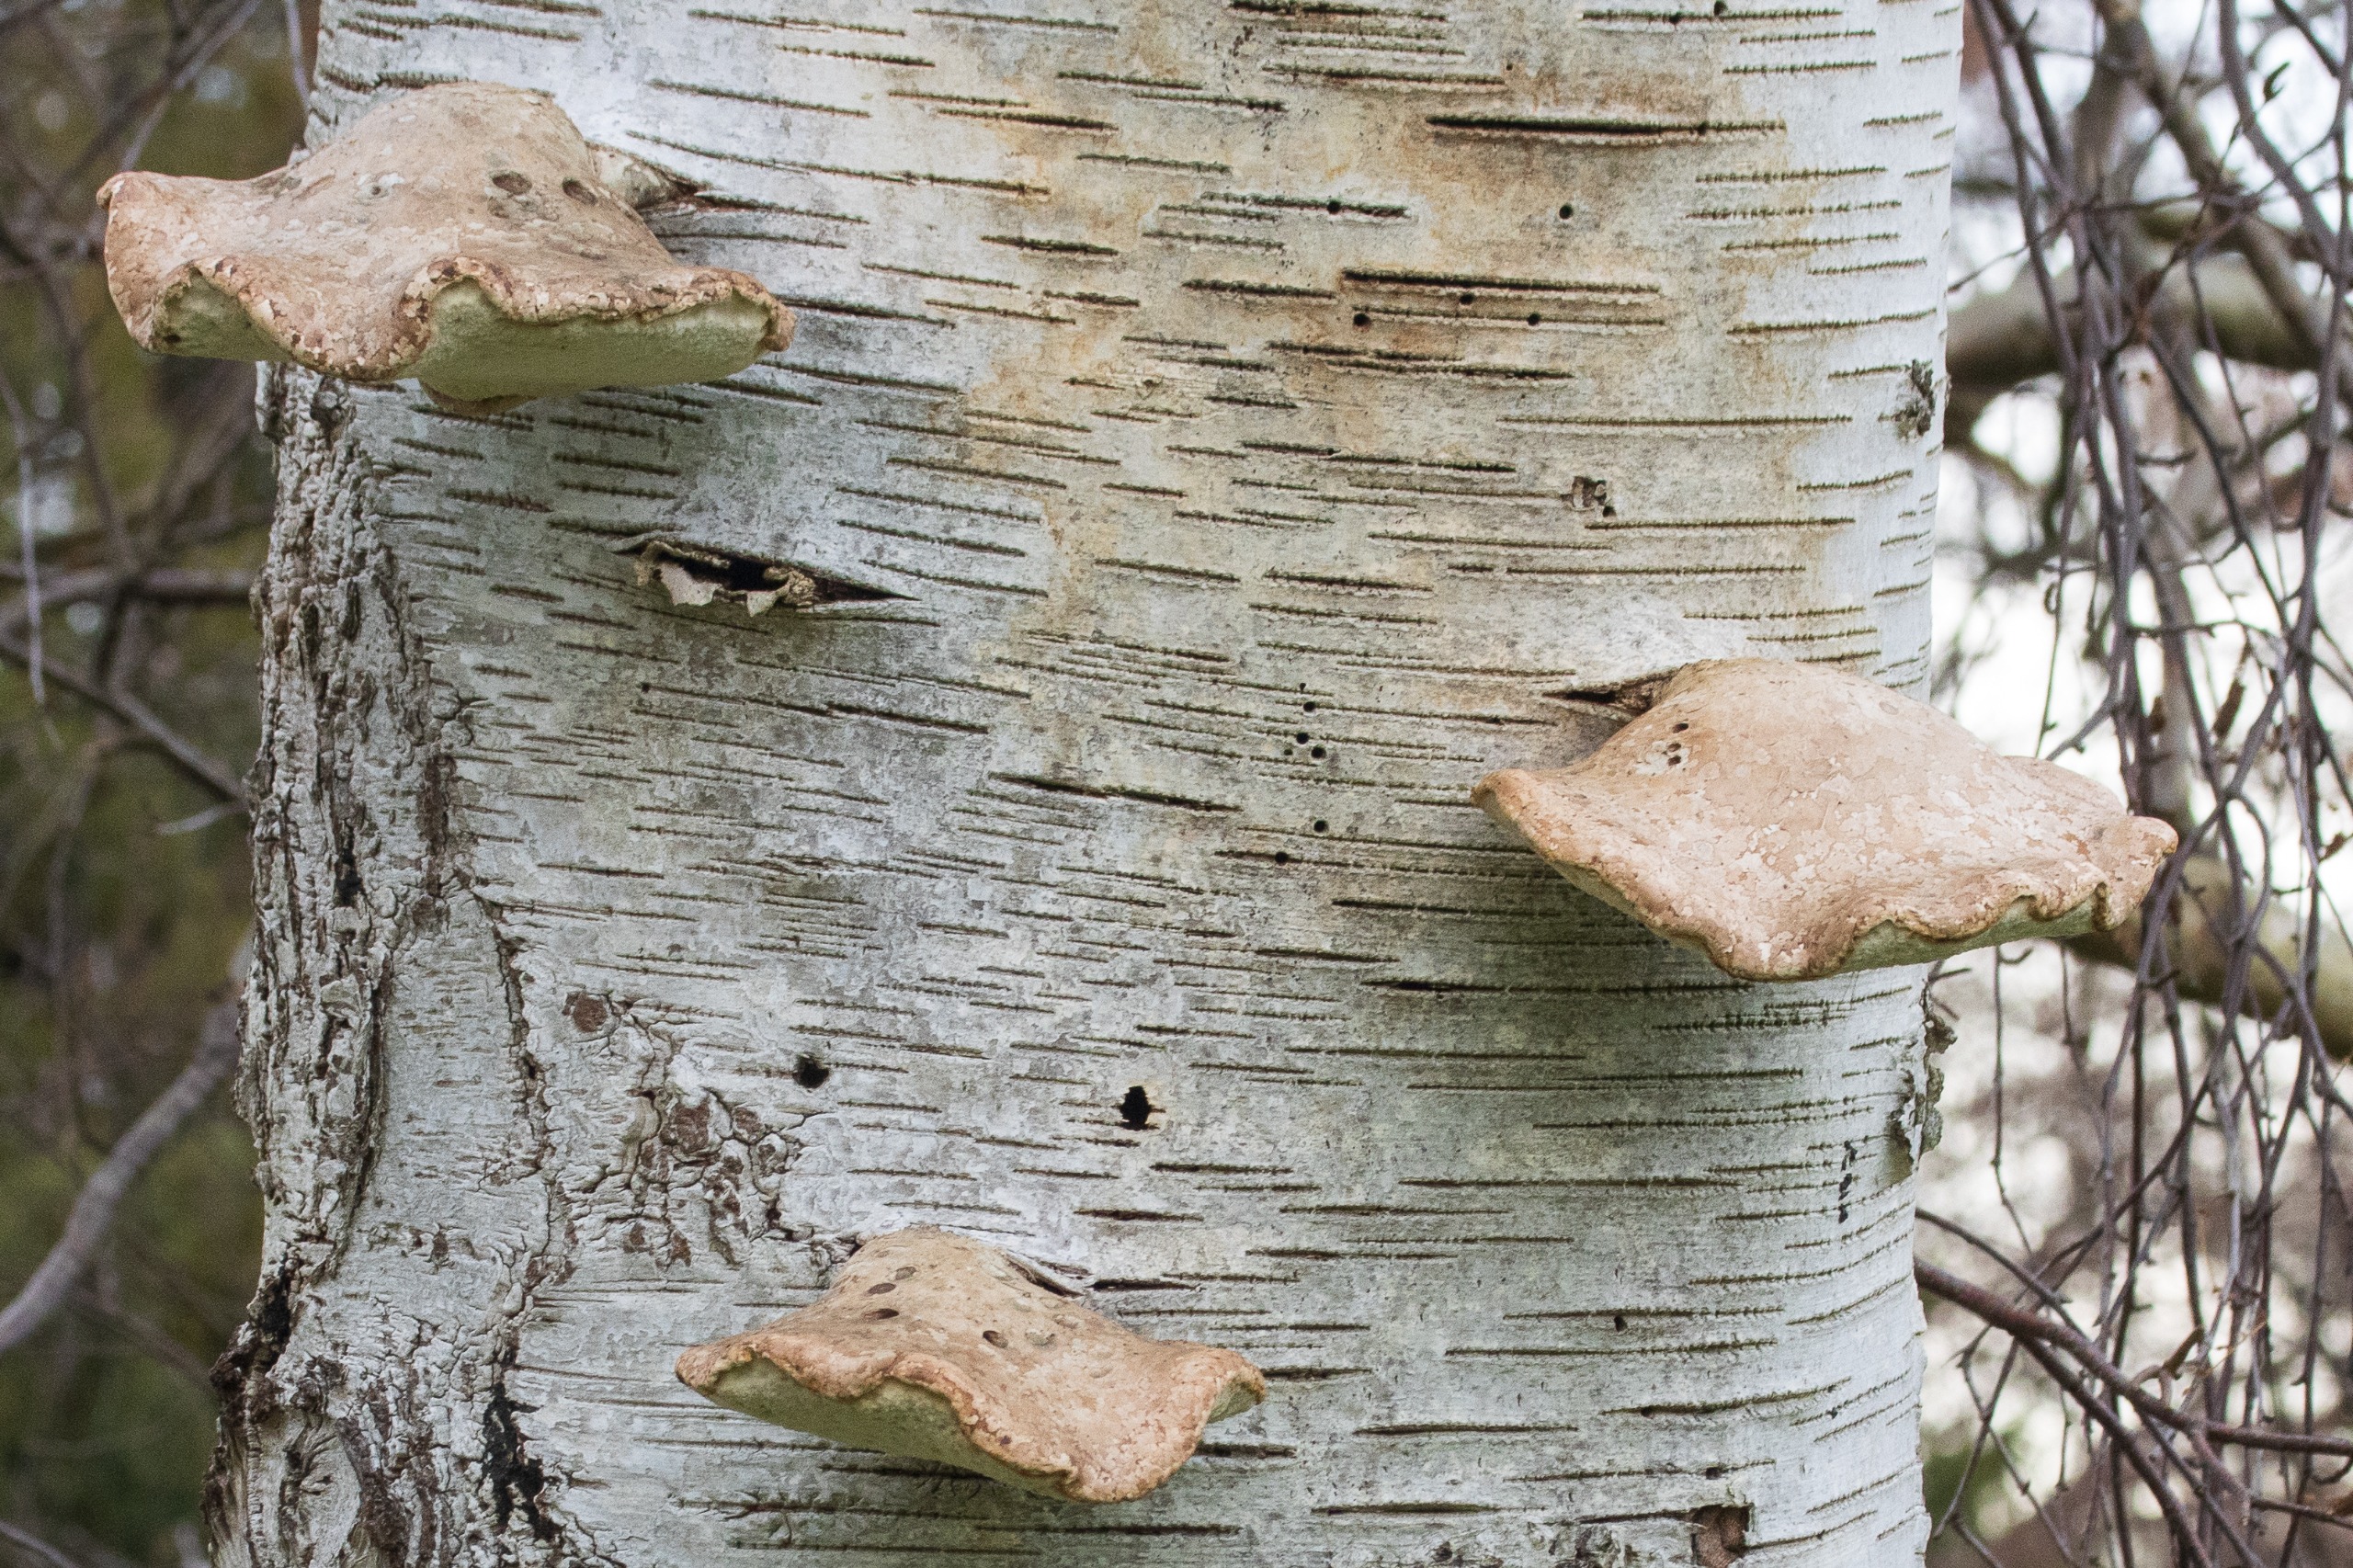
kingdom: Fungi
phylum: Basidiomycota
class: Agaricomycetes
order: Polyporales
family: Fomitopsidaceae
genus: Fomitopsis
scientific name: Fomitopsis betulina
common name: Birkeporesvamp
